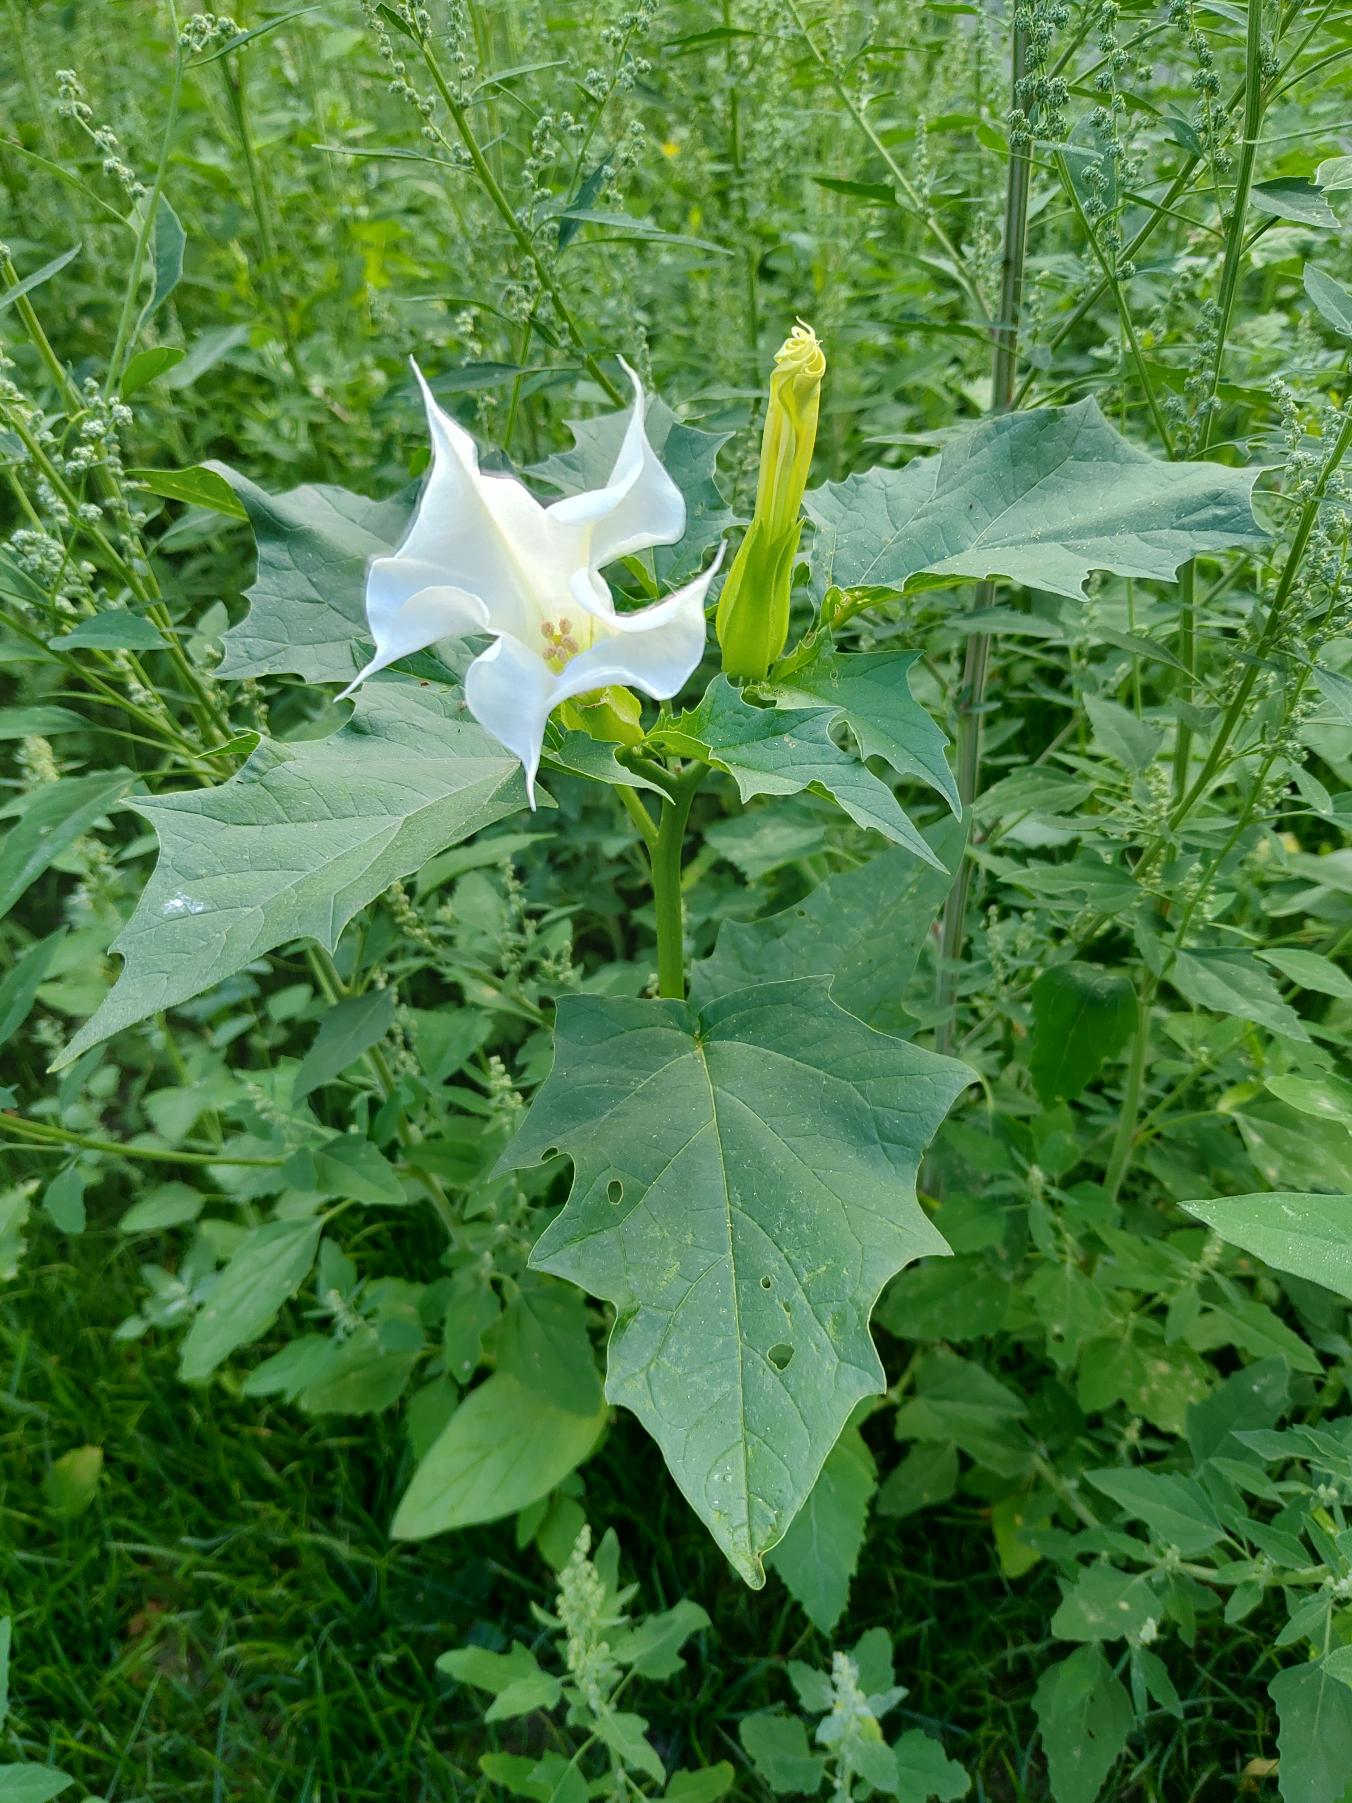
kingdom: Plantae
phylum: Tracheophyta
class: Magnoliopsida
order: Solanales
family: Solanaceae
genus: Datura
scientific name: Datura stramonium
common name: Pigæble
